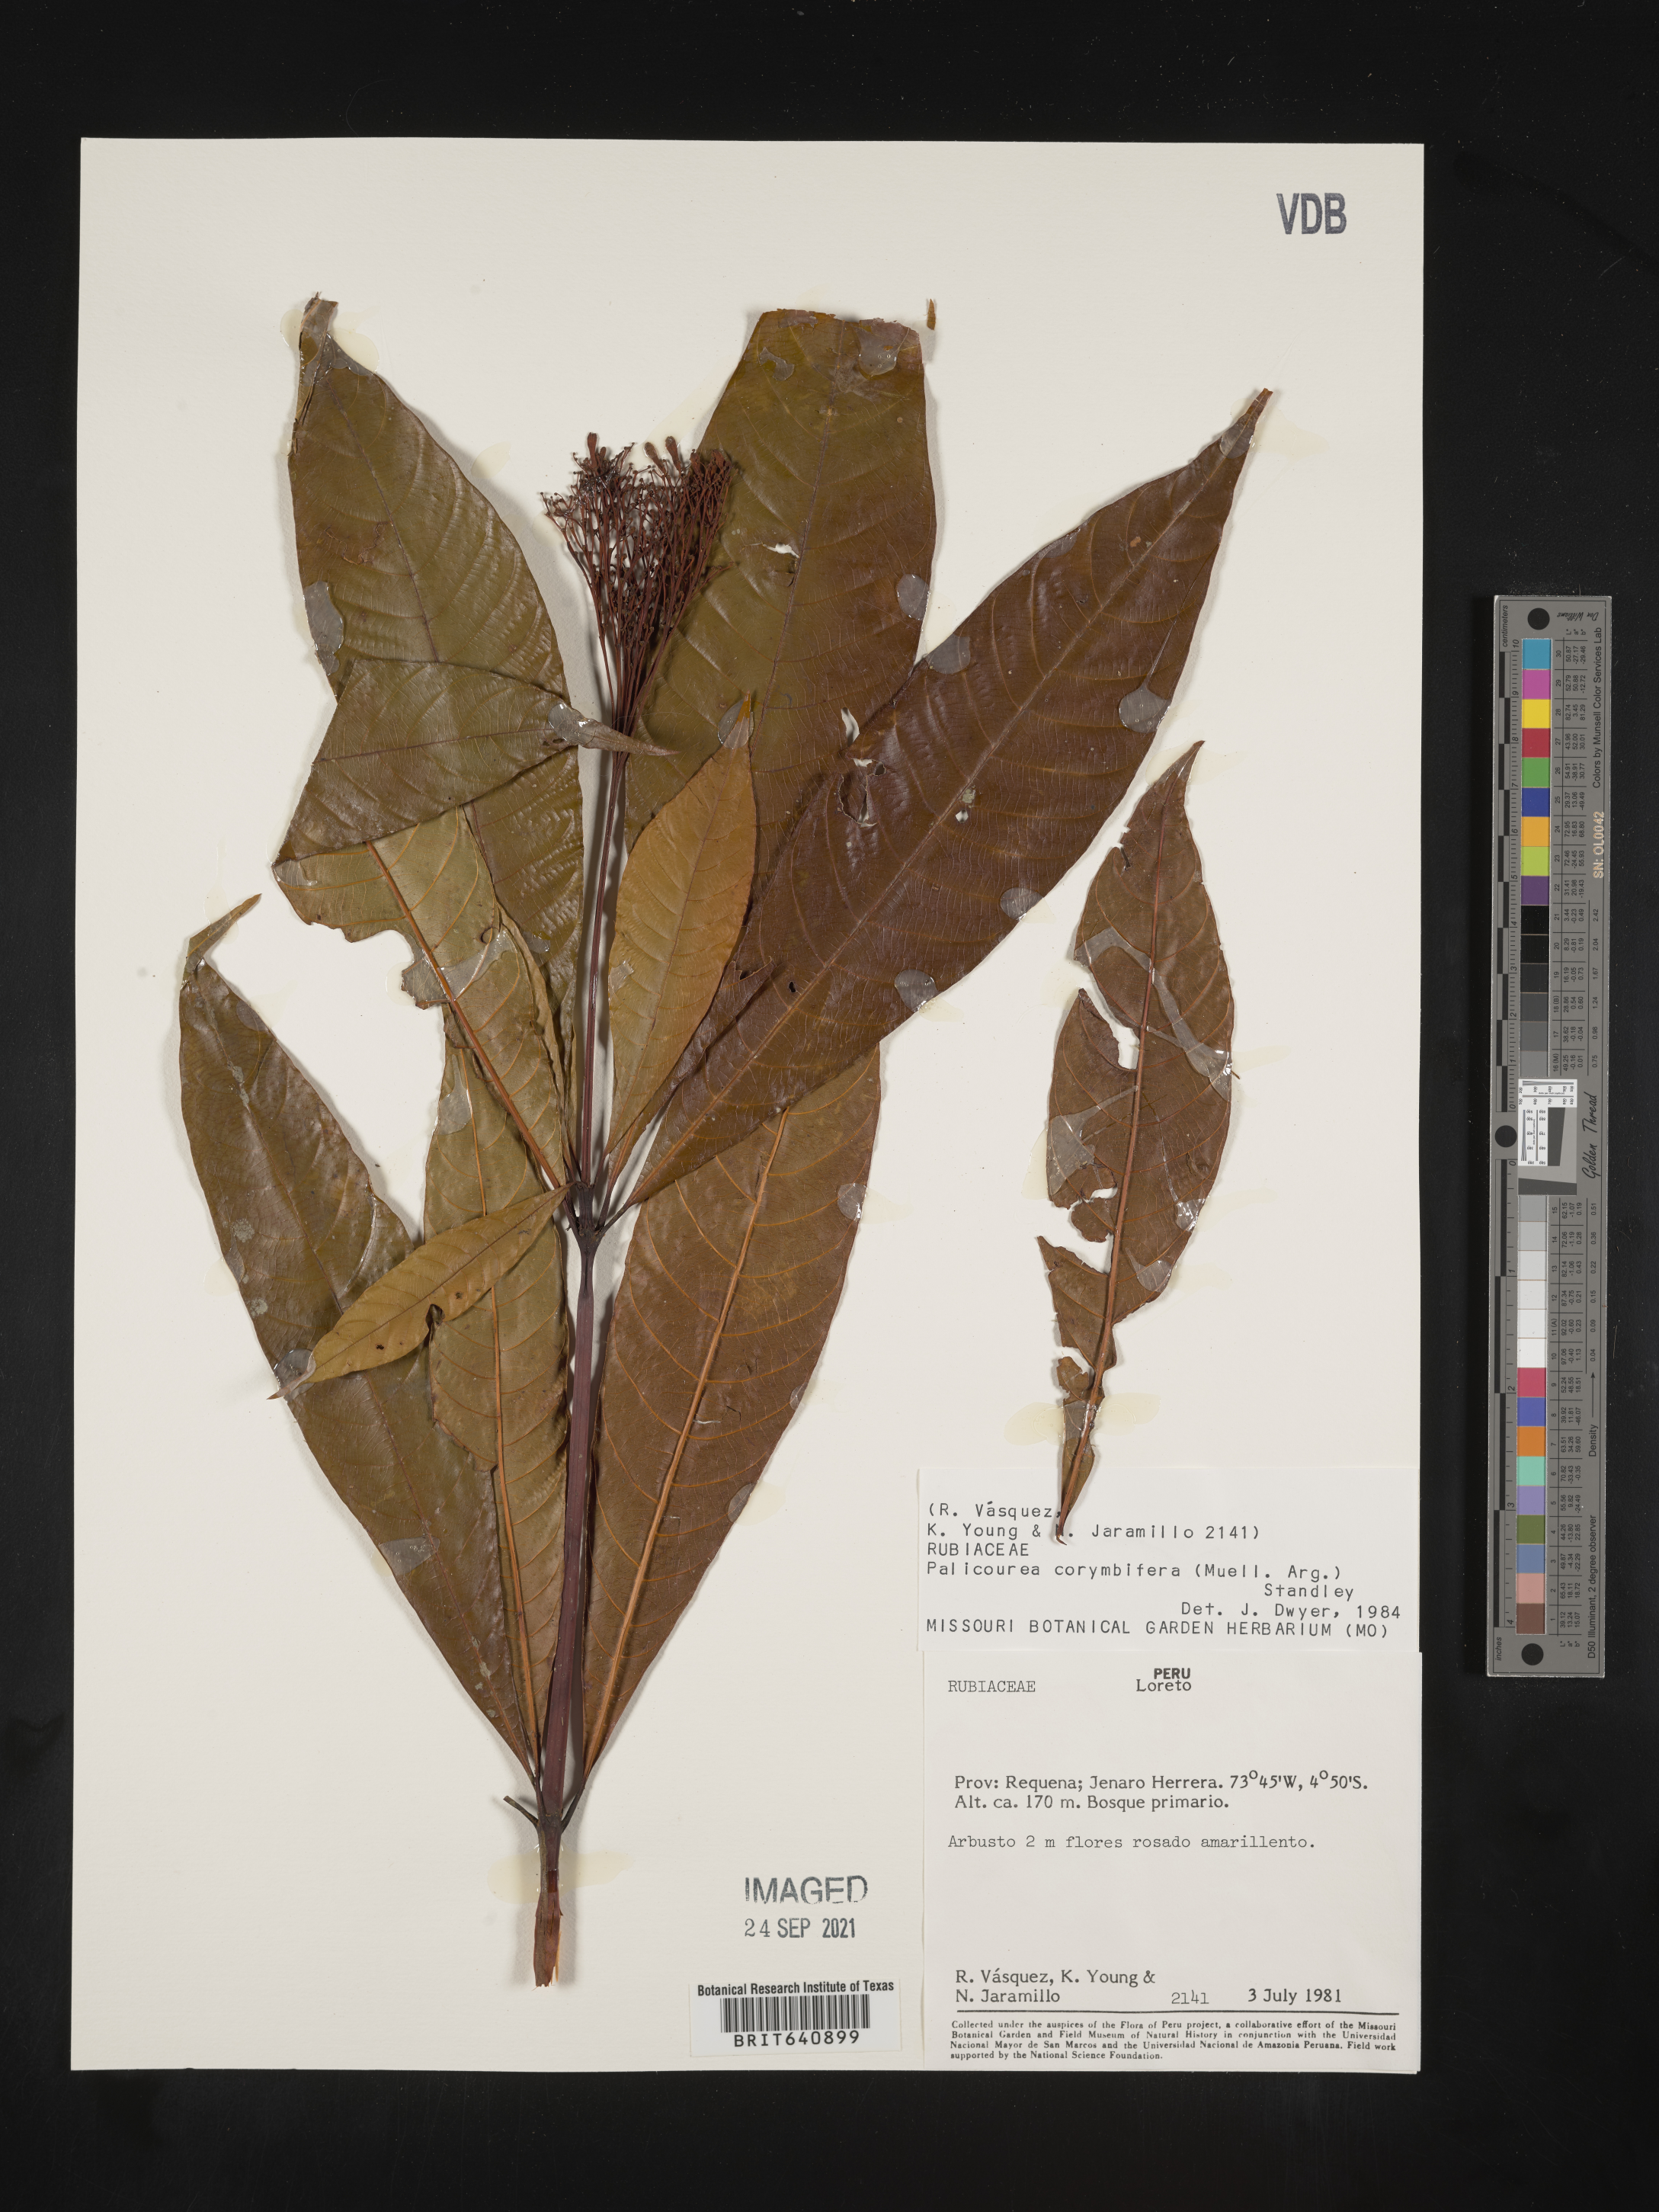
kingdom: Plantae
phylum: Tracheophyta
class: Magnoliopsida
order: Gentianales
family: Rubiaceae
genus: Palicourea
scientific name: Palicourea
